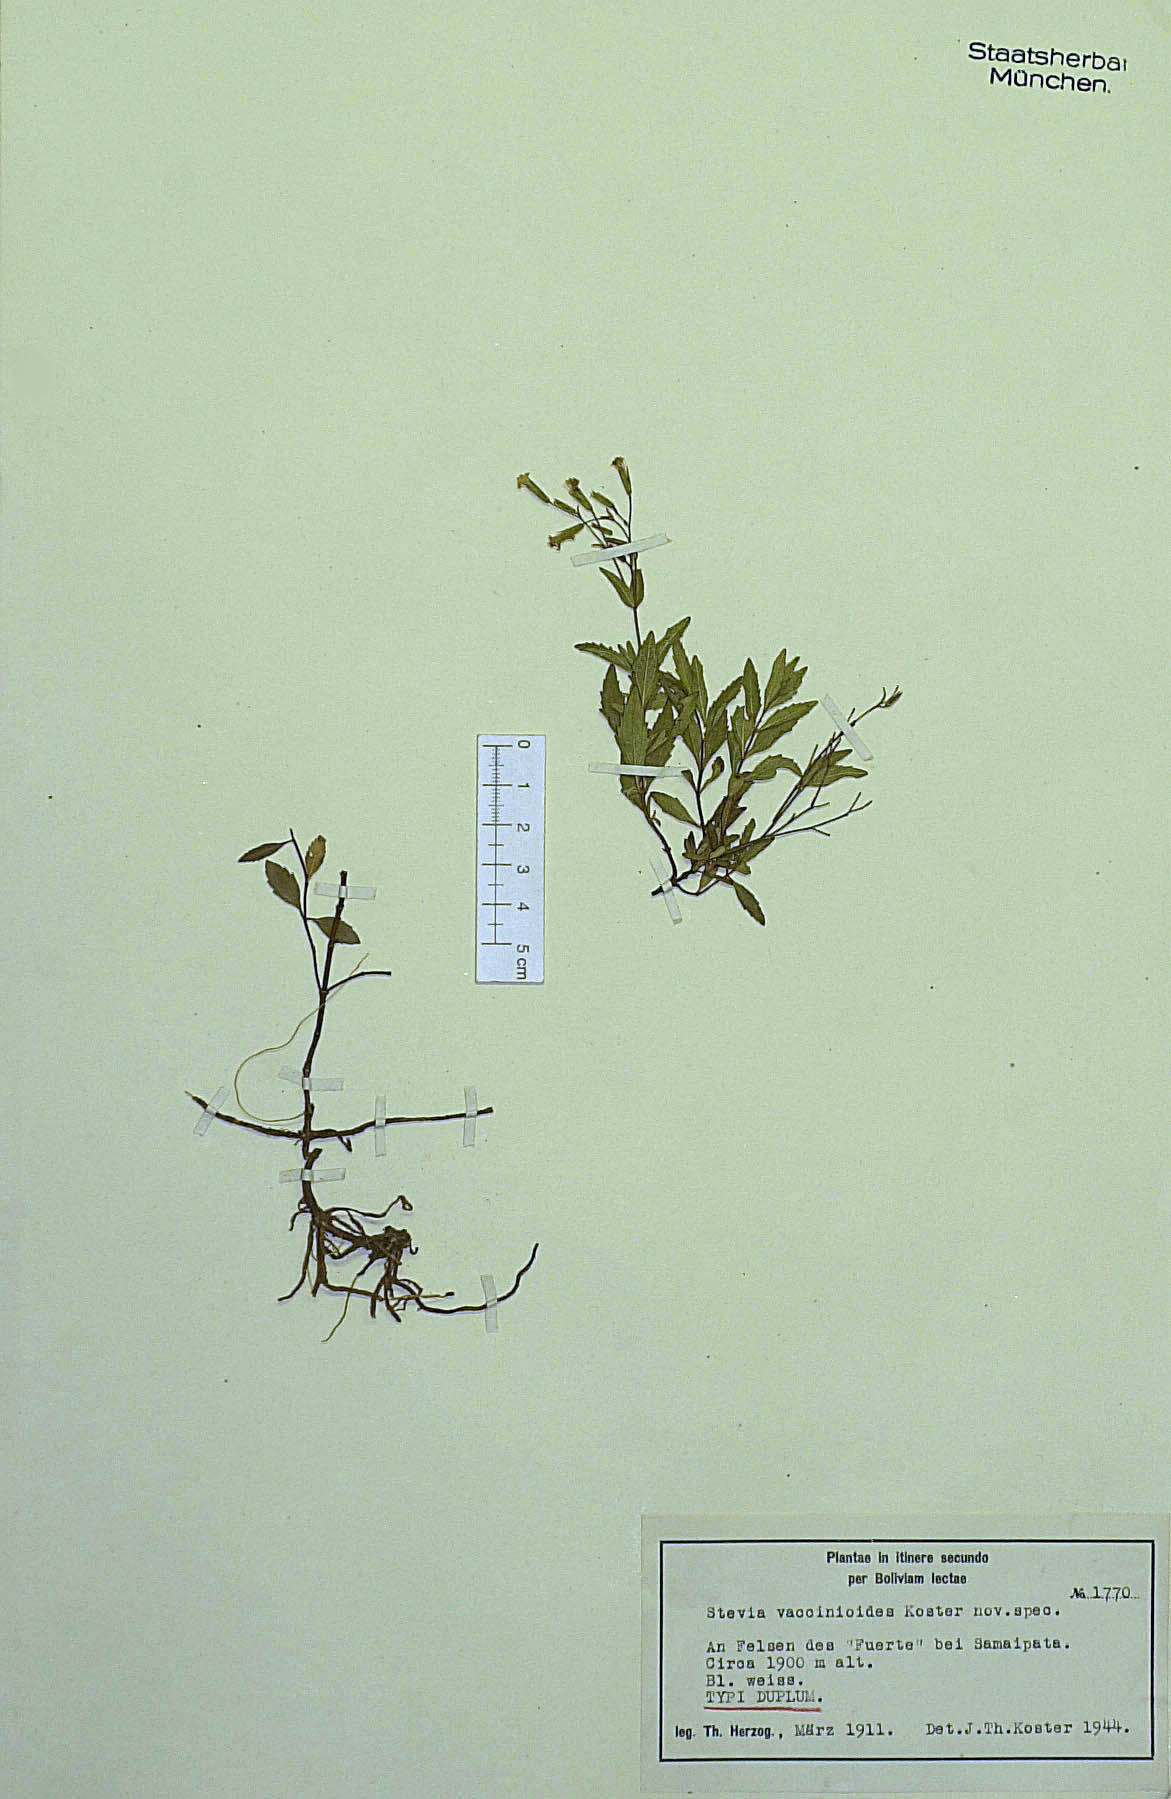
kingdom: Plantae
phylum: Tracheophyta
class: Magnoliopsida
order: Asterales
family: Asteraceae
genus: Stevia
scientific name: Stevia vaccinioides
